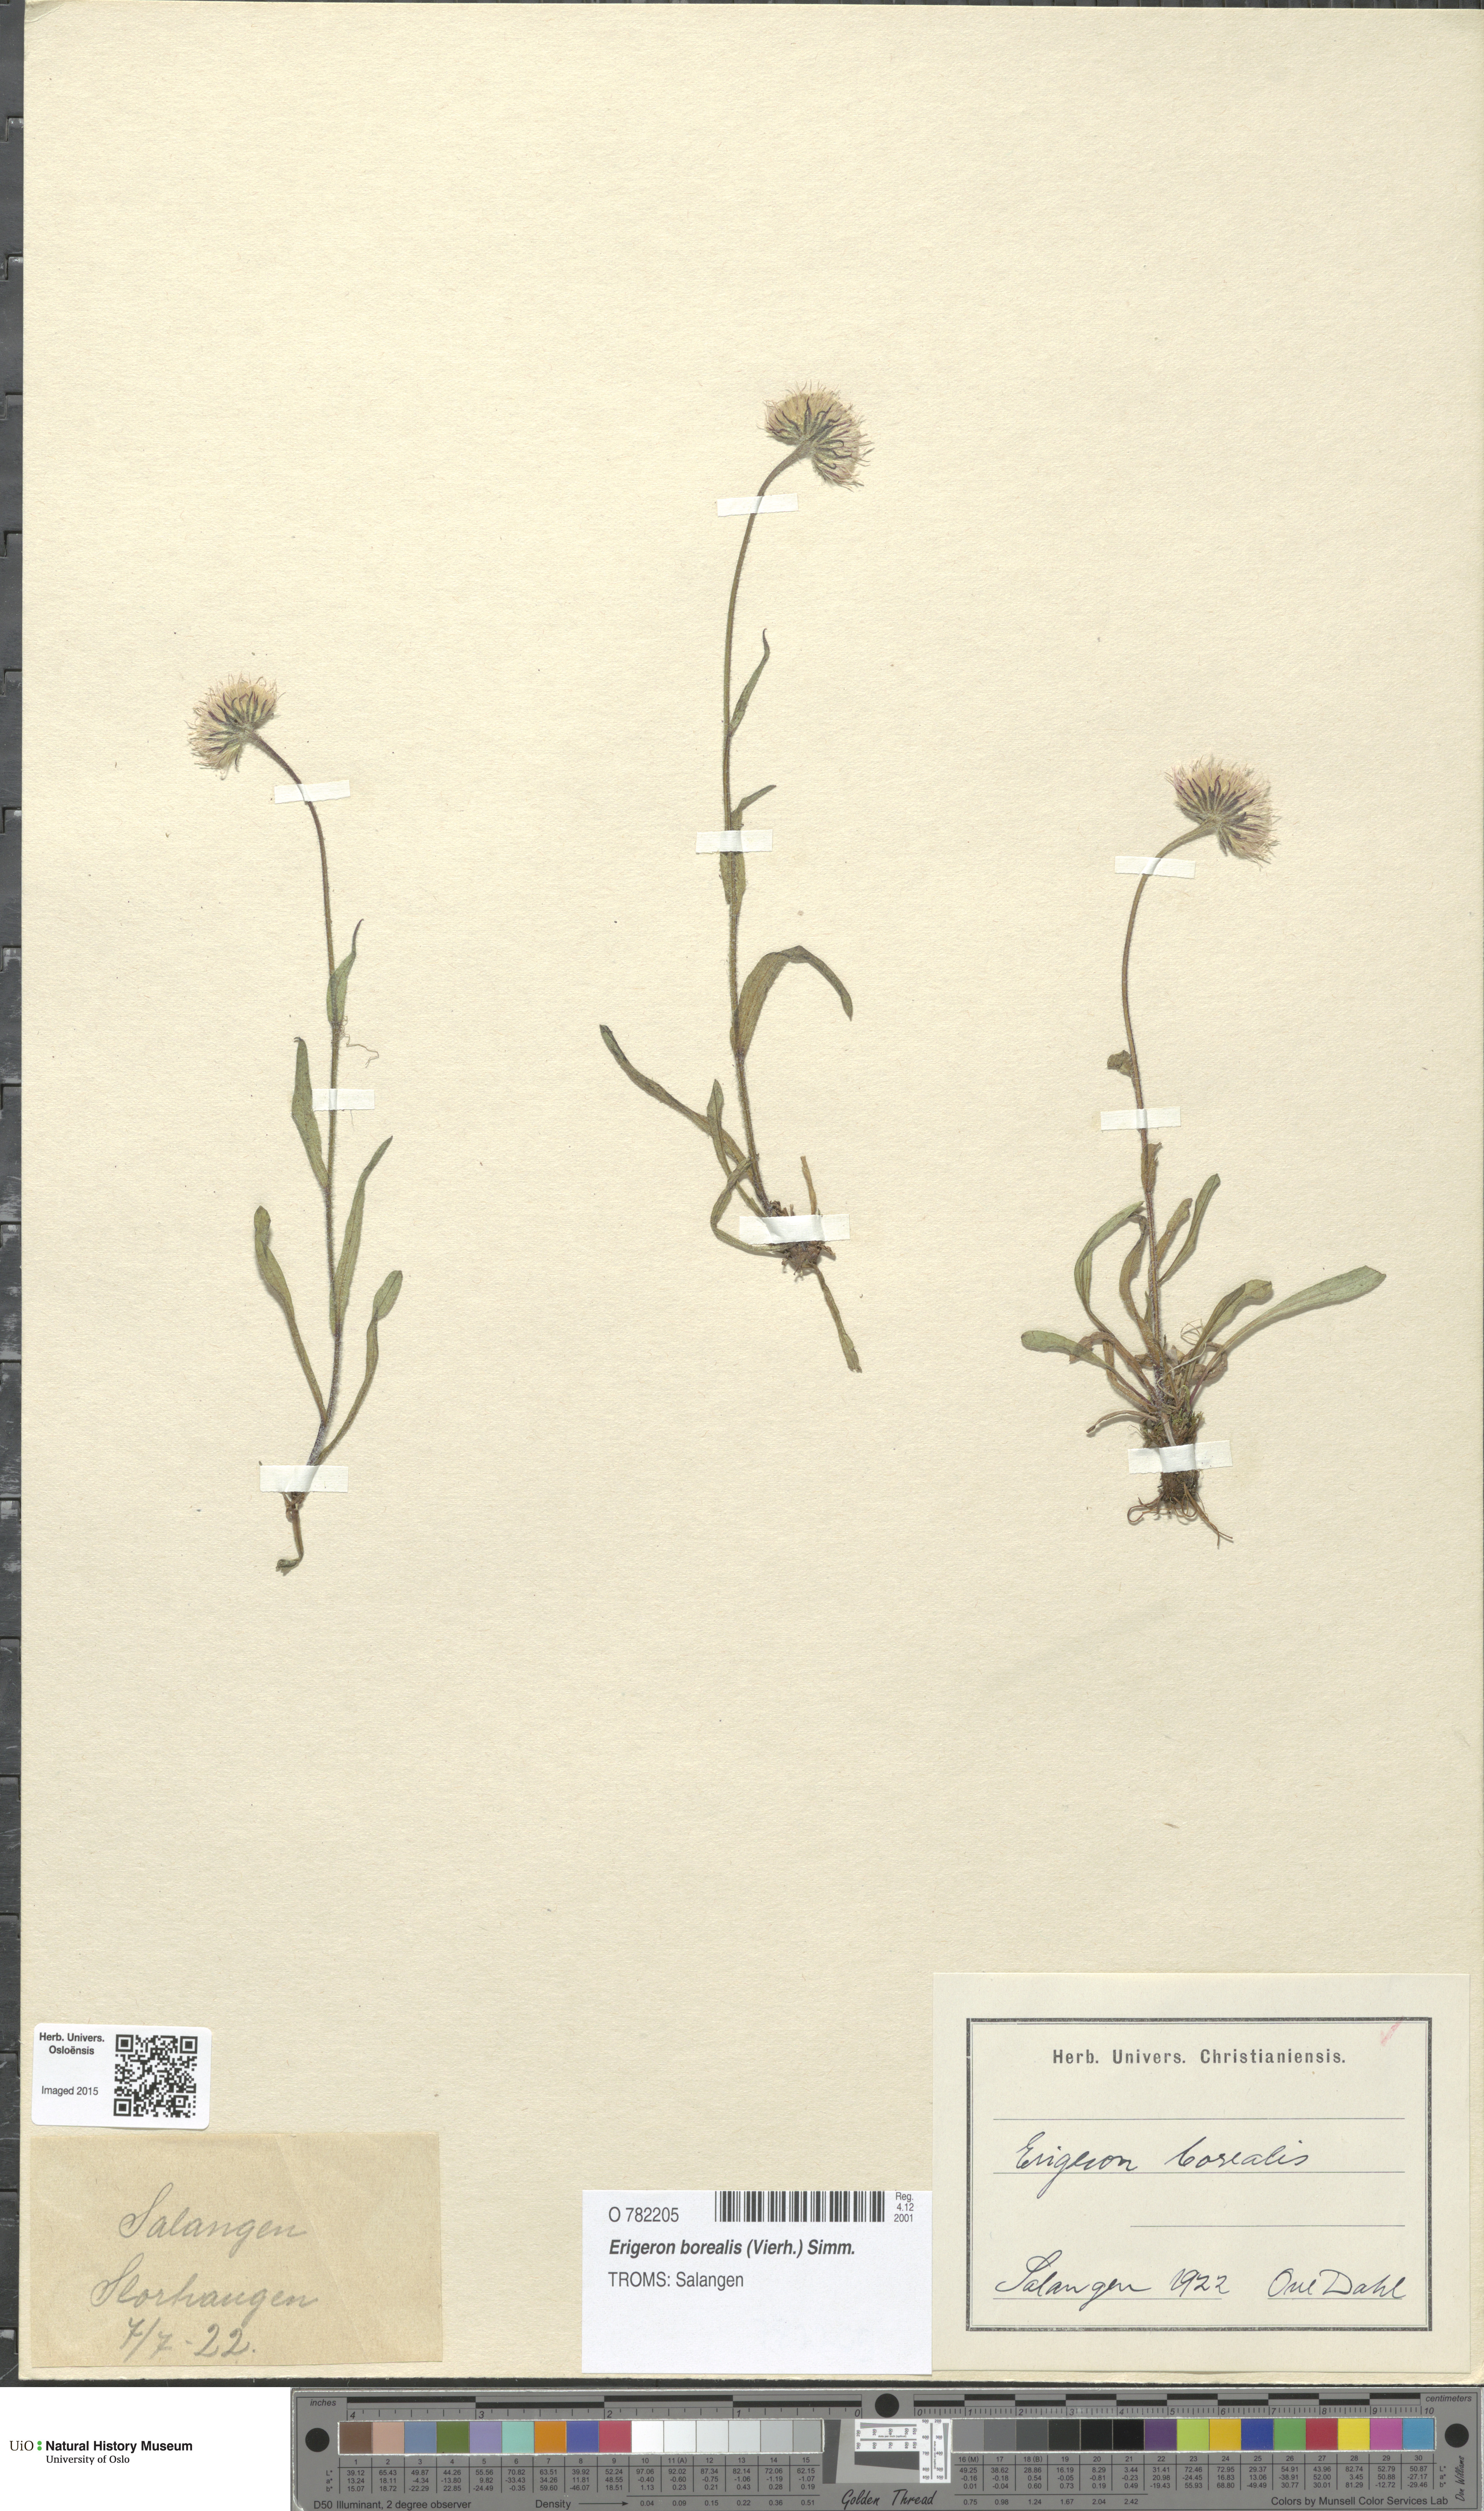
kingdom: Plantae
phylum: Tracheophyta
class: Magnoliopsida
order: Asterales
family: Asteraceae
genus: Erigeron
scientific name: Erigeron borealis
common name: Alpine fleabane
